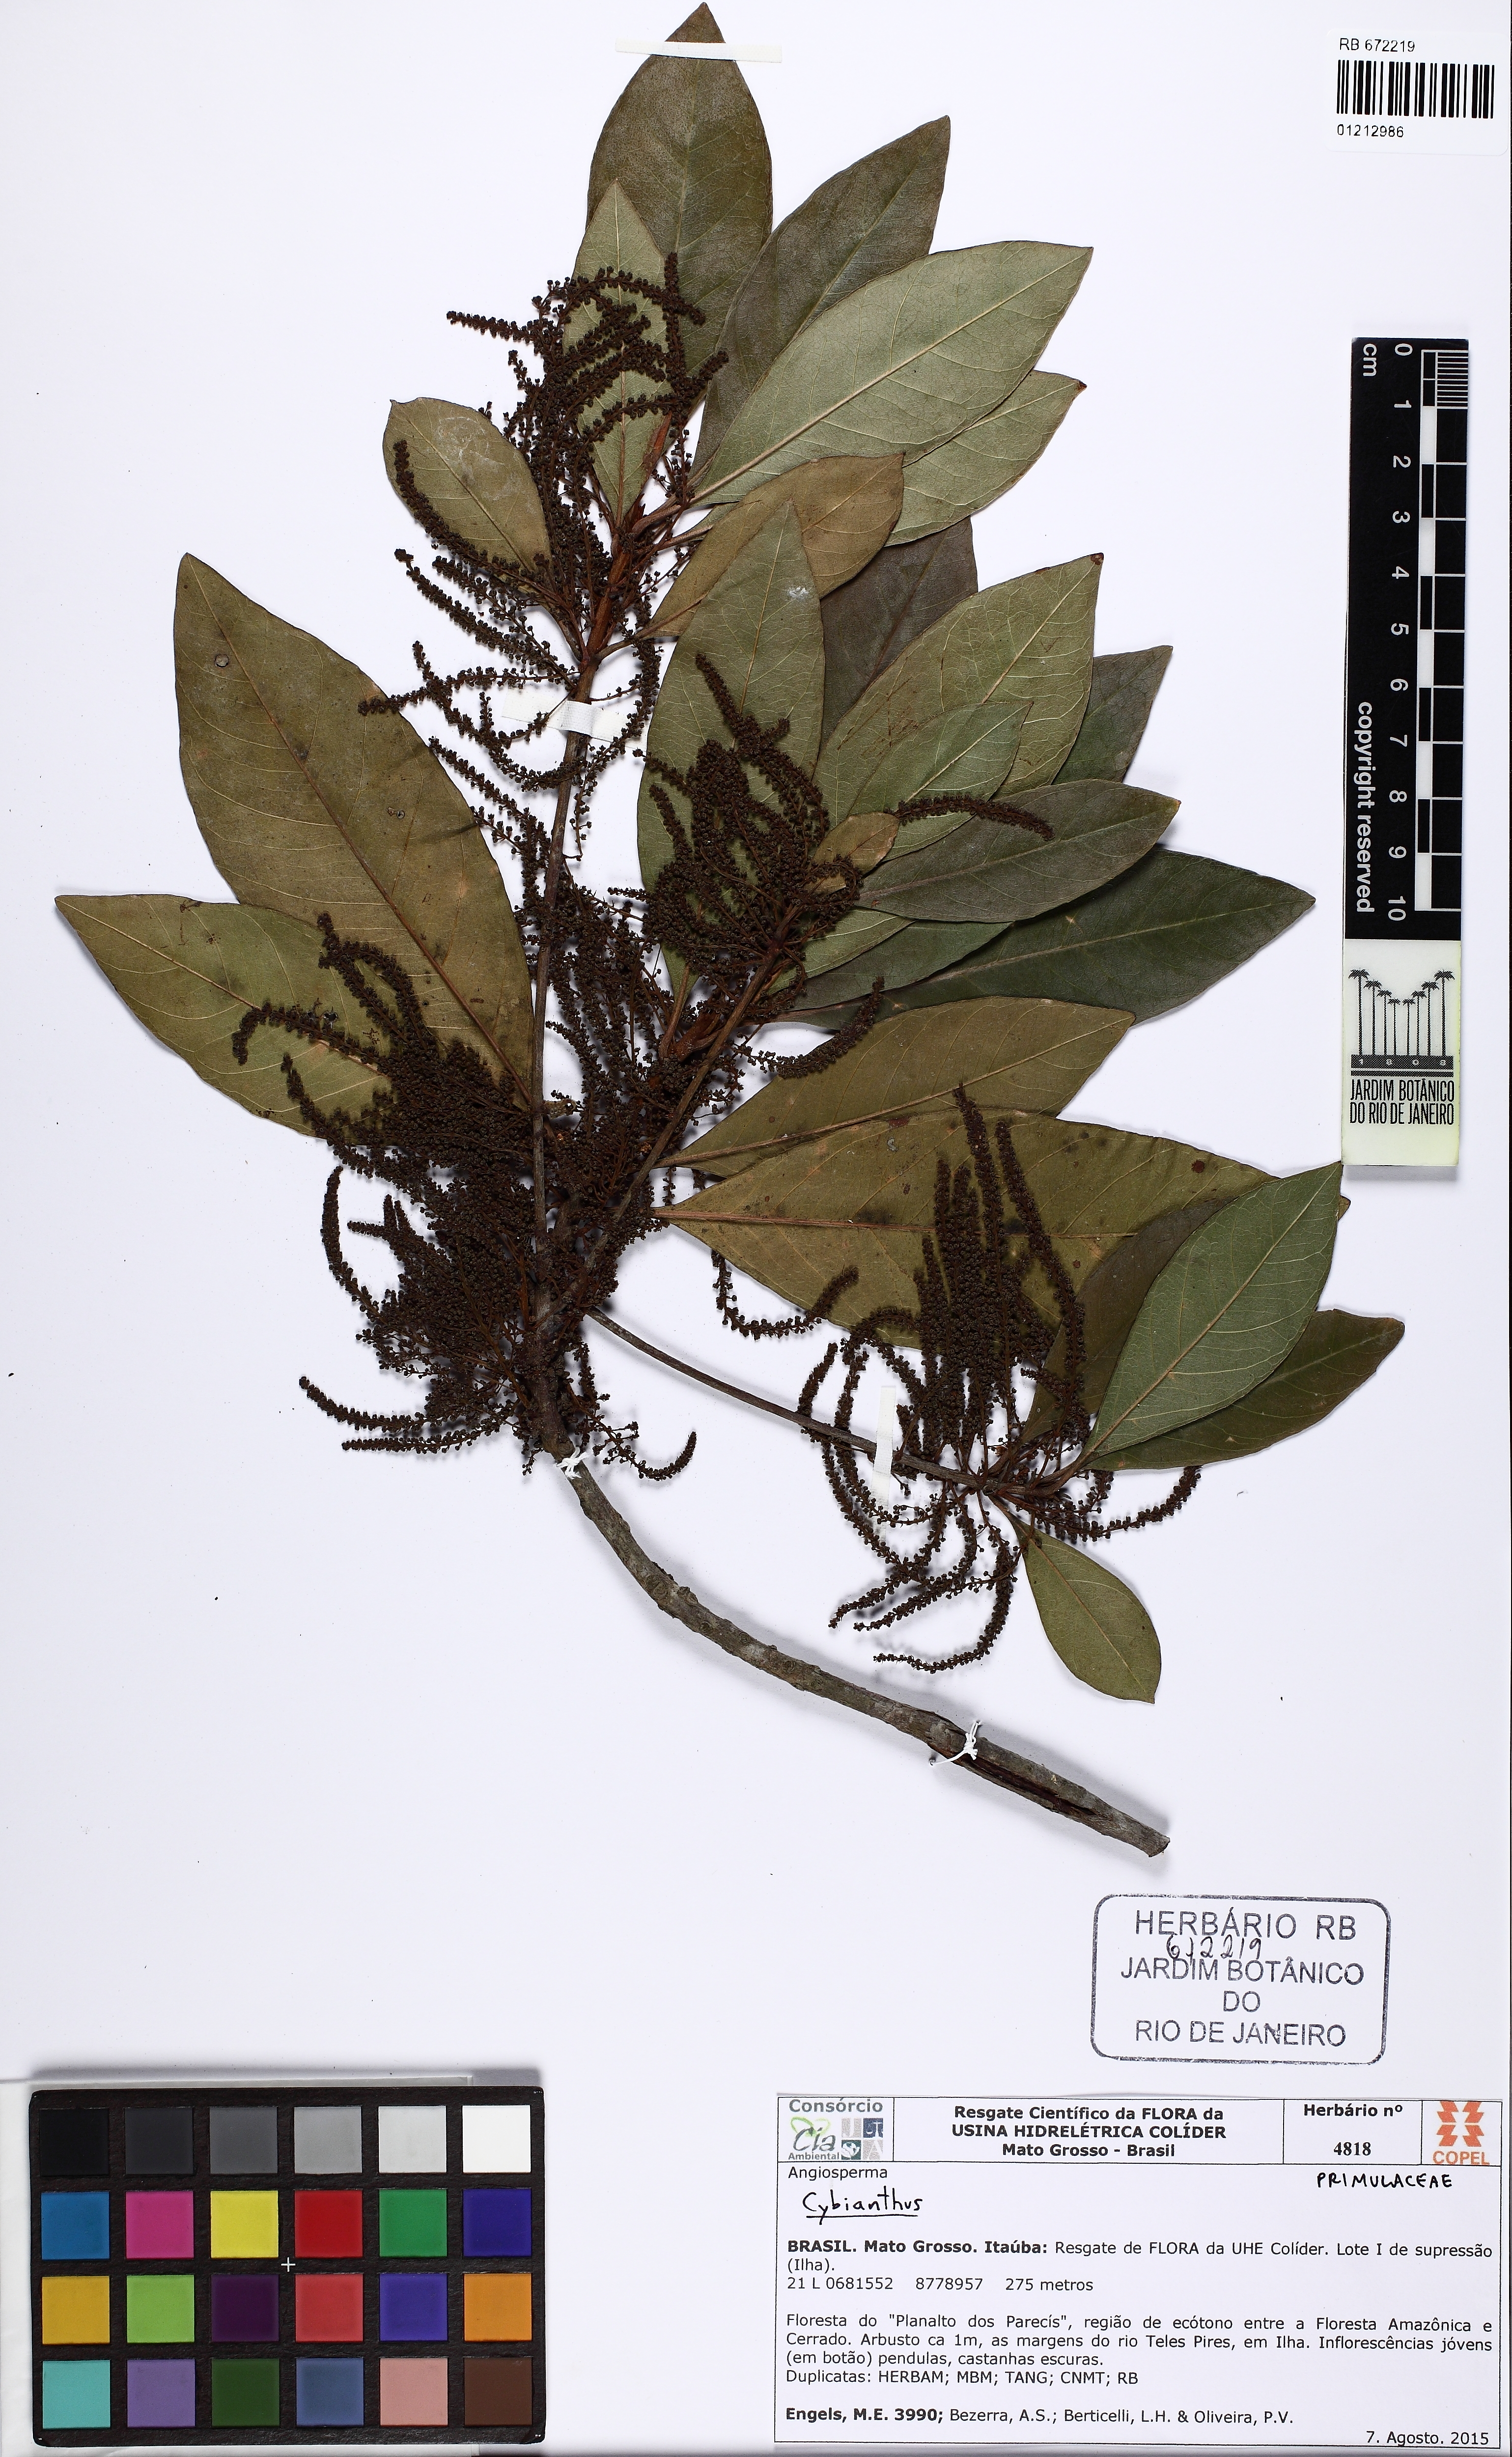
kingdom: Plantae
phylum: Tracheophyta
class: Magnoliopsida
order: Ericales
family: Primulaceae
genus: Cybianthus
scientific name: Cybianthus
